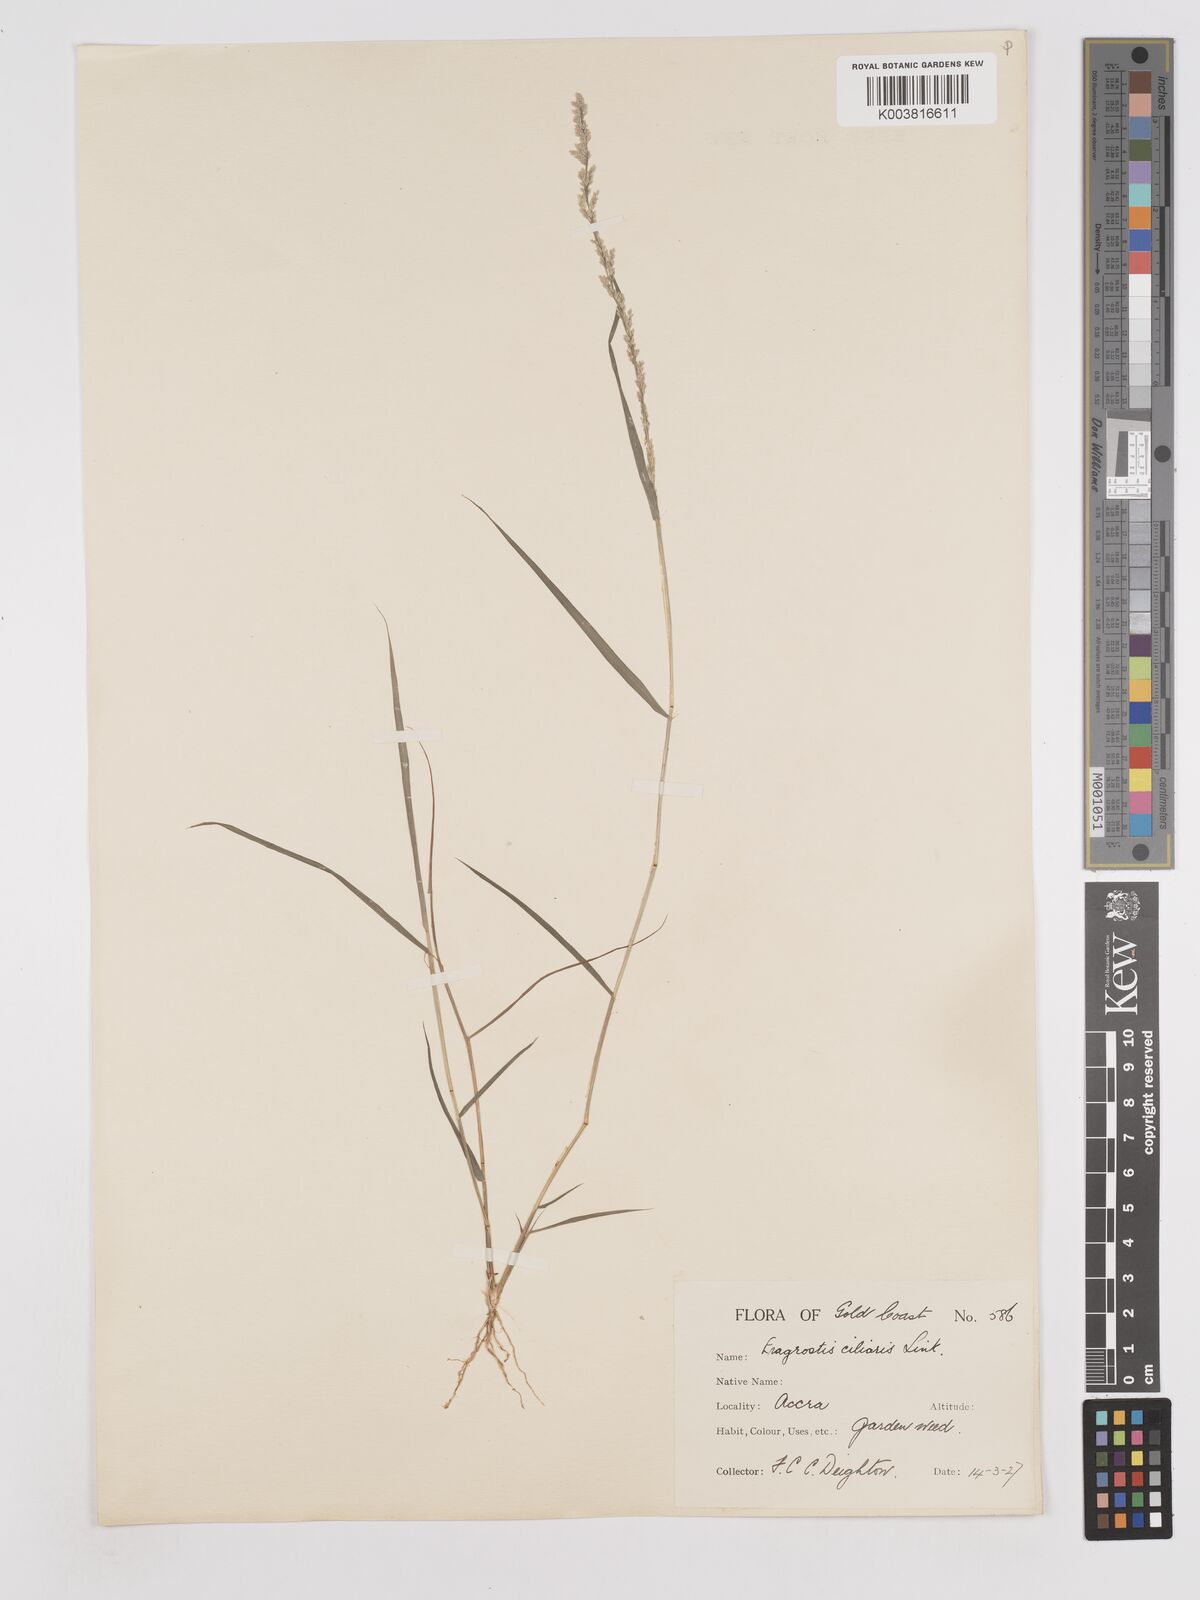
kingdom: Plantae
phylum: Tracheophyta
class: Liliopsida
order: Poales
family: Poaceae
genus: Eragrostis
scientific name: Eragrostis ciliaris
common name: Gophertail lovegrass
